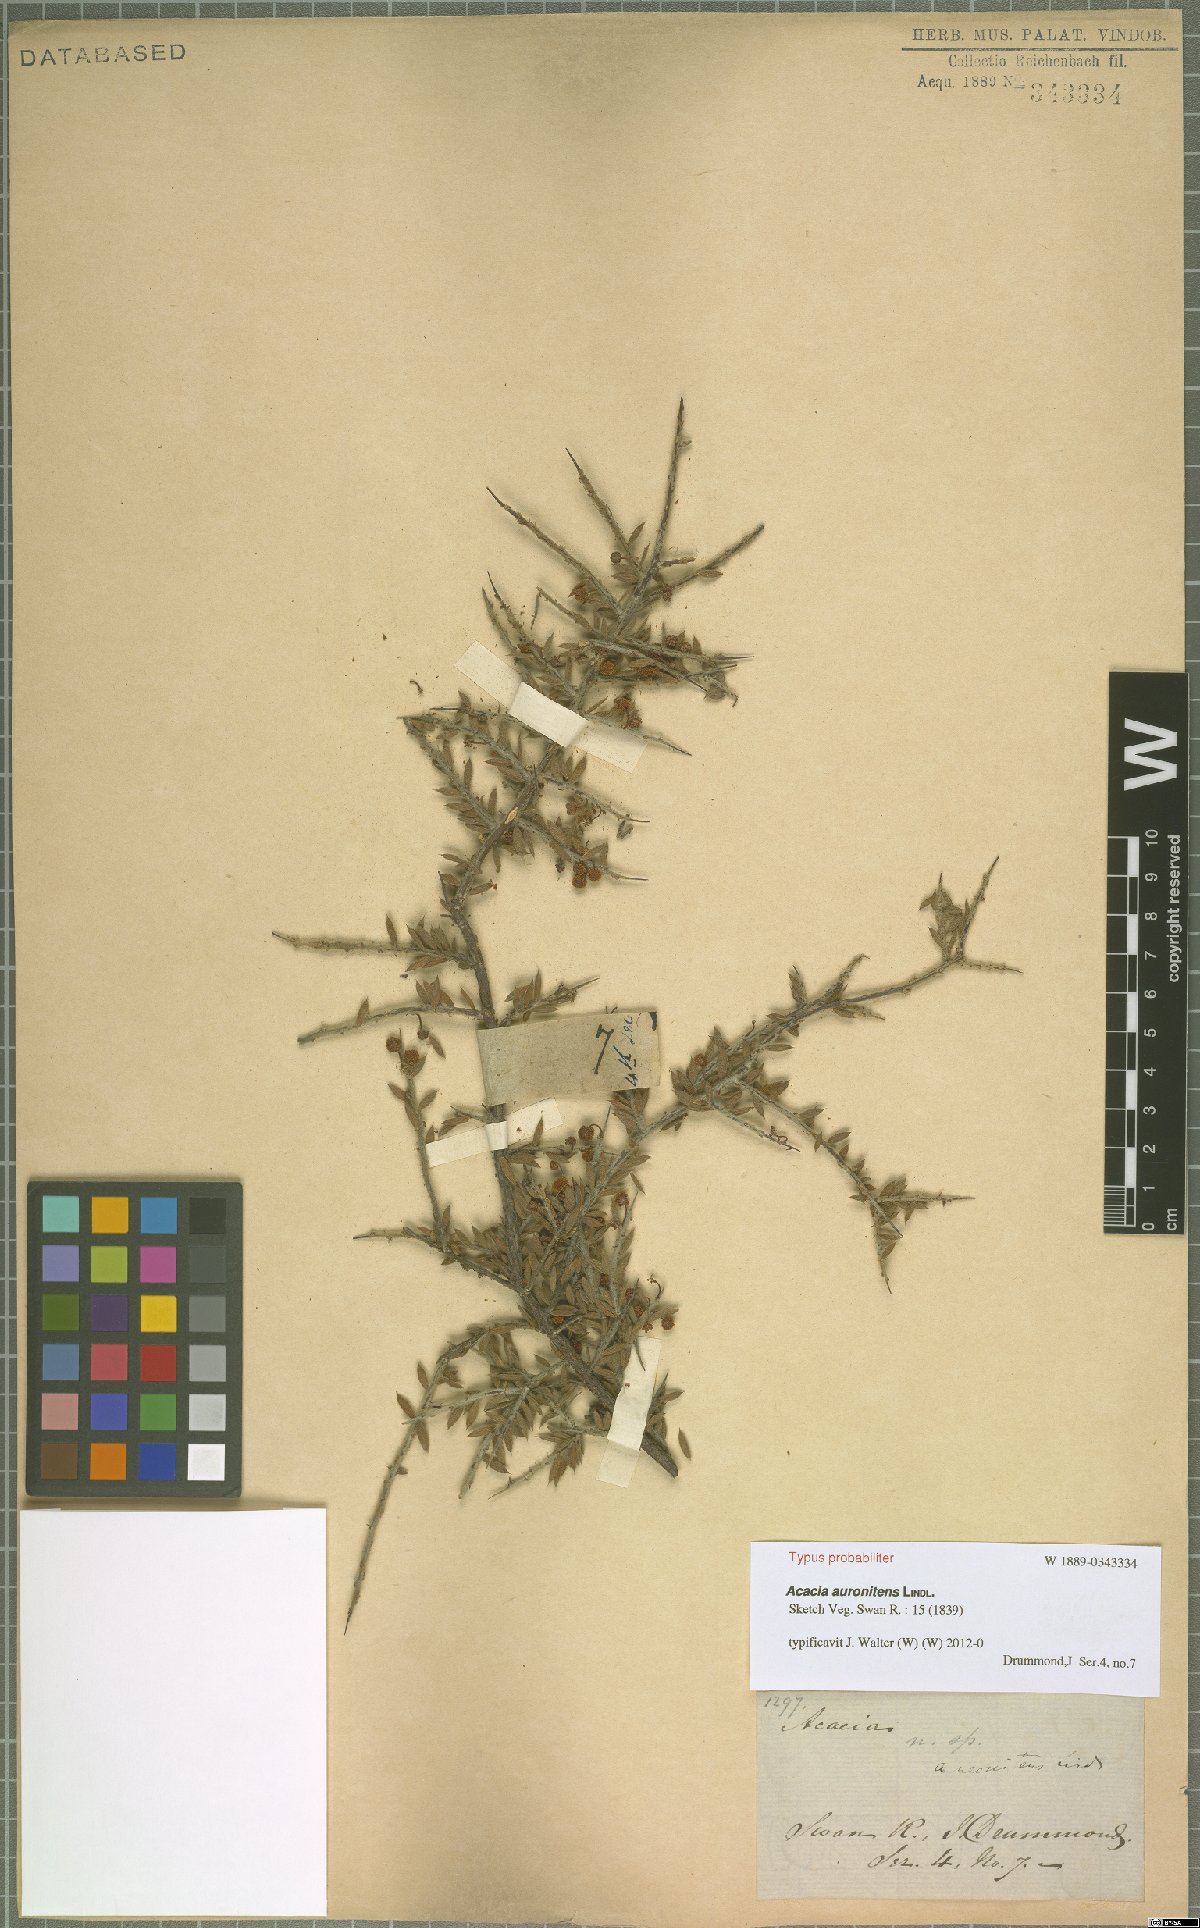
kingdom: Plantae
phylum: Tracheophyta
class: Magnoliopsida
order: Fabales
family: Fabaceae
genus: Acacia
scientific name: Acacia auronitens
